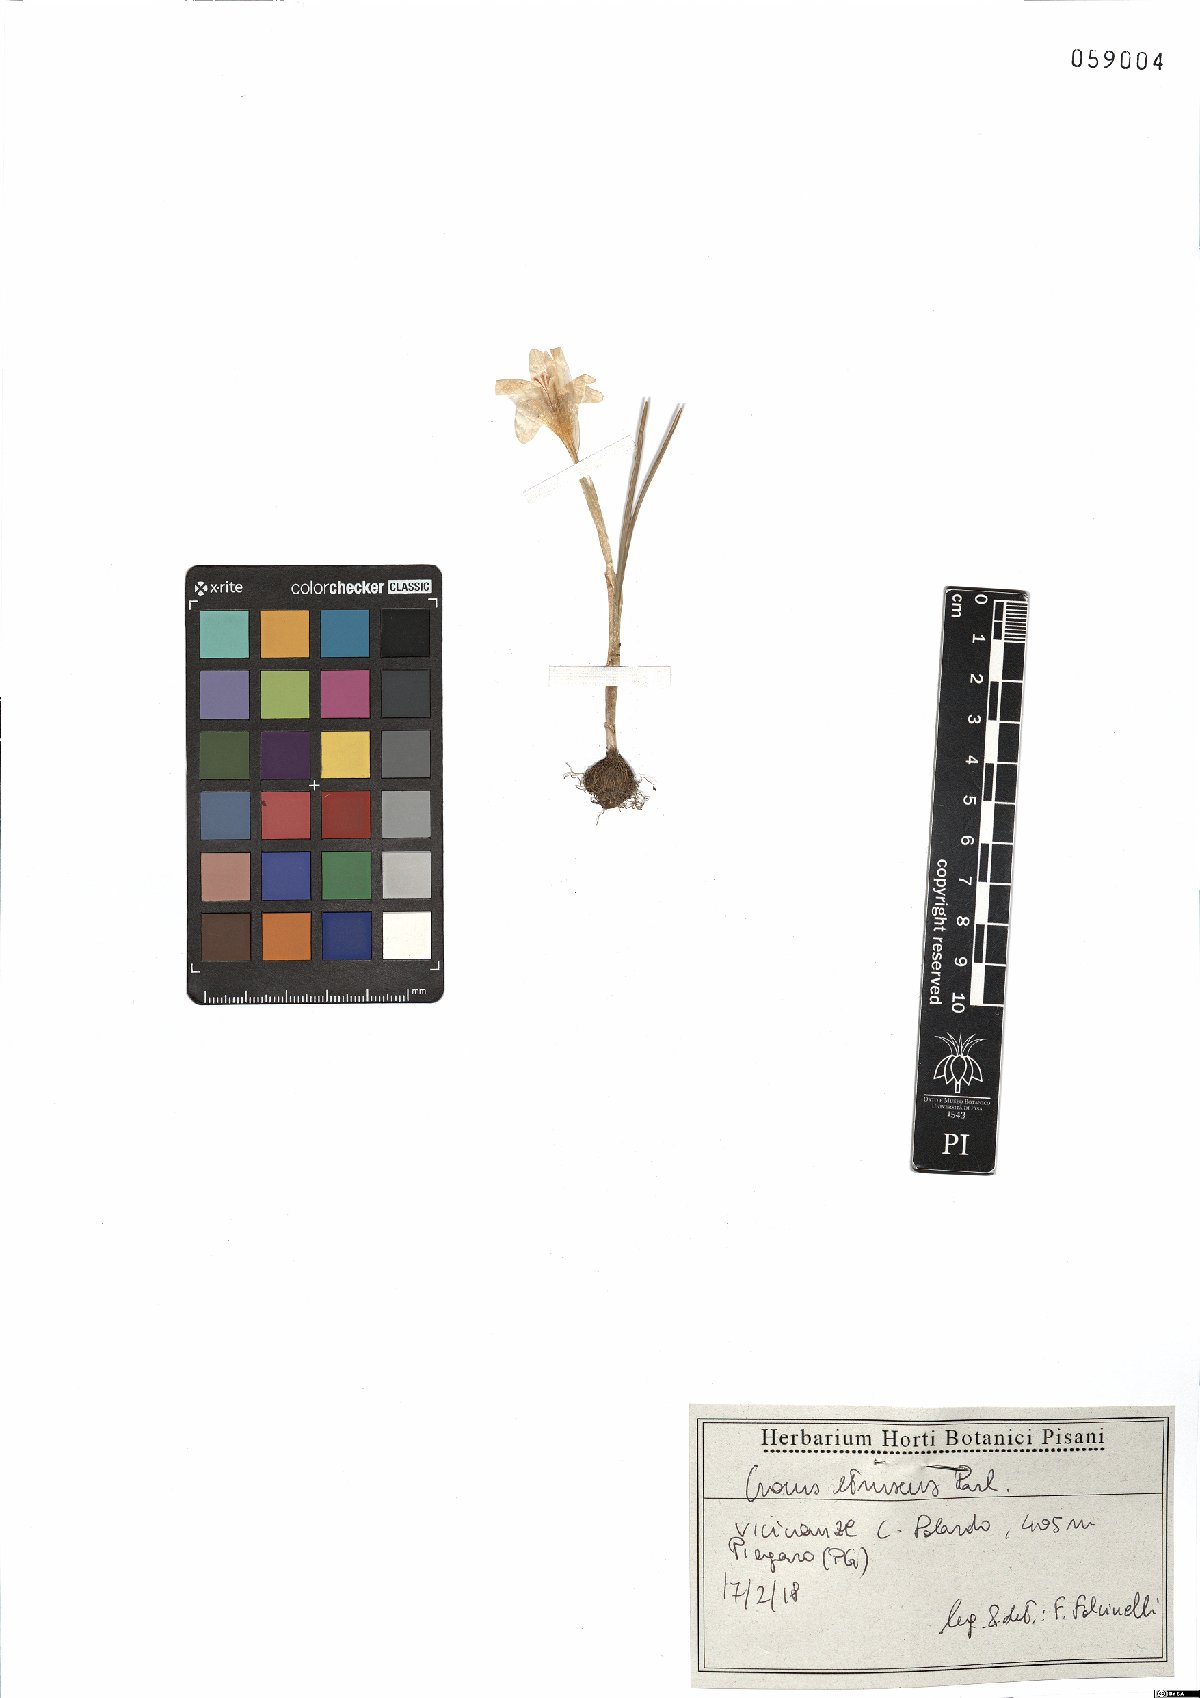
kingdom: Plantae
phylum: Tracheophyta
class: Liliopsida
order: Asparagales
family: Iridaceae
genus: Crocus
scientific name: Crocus etruscus
